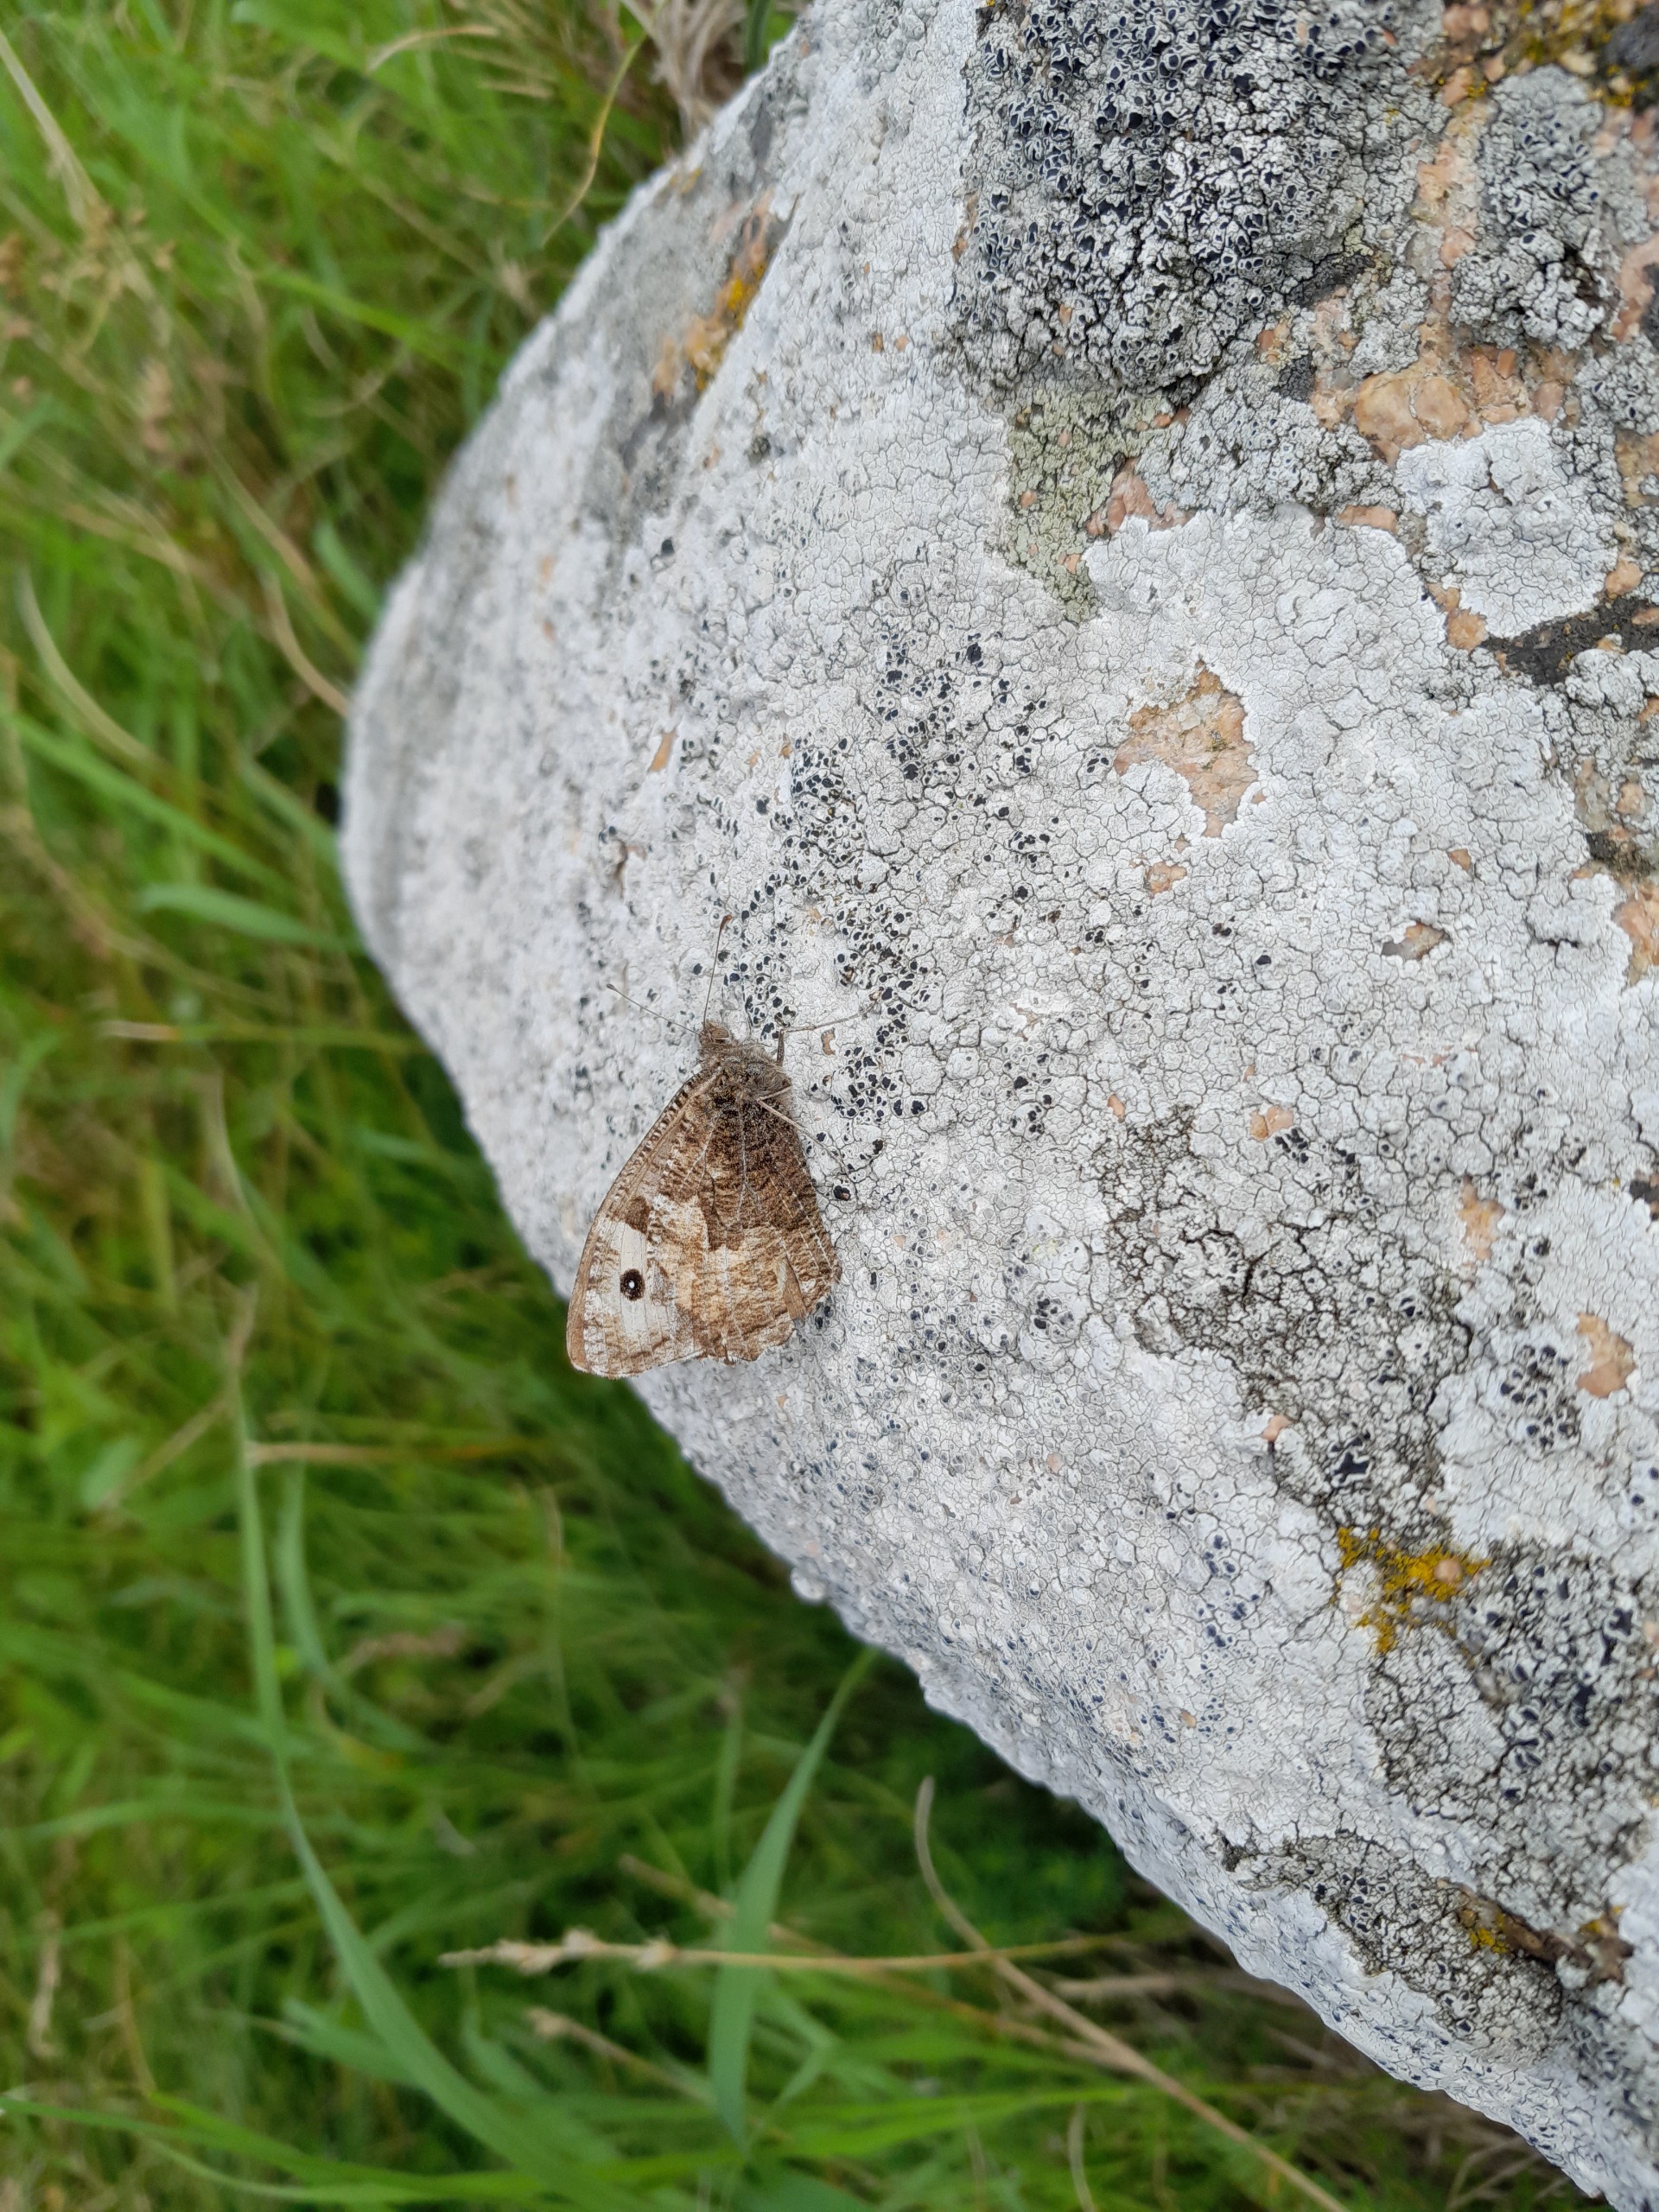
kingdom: Animalia
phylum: Arthropoda
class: Insecta
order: Lepidoptera
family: Nymphalidae
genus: Hipparchia
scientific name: Hipparchia semele
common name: Sandrandøje
